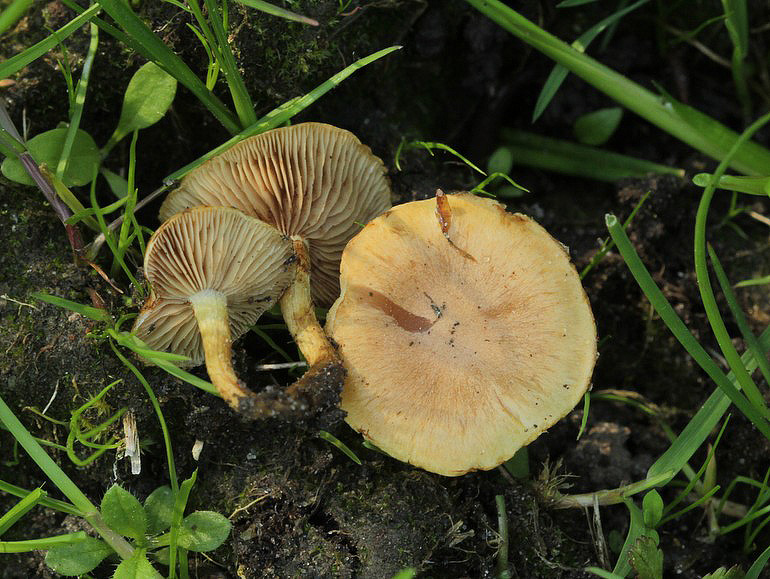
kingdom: Fungi
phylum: Basidiomycota
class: Agaricomycetes
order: Agaricales
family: Strophariaceae
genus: Pholiota
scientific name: Pholiota conissans
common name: pile-skælhat
